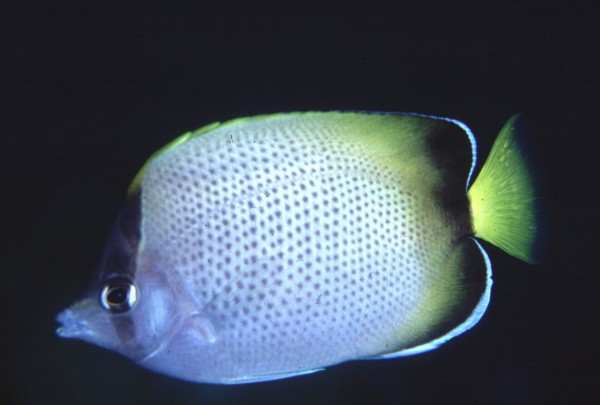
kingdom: Animalia
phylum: Chordata
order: Perciformes
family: Chaetodontidae
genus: Chaetodon
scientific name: Chaetodon dolosus
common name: African butterflyfish
